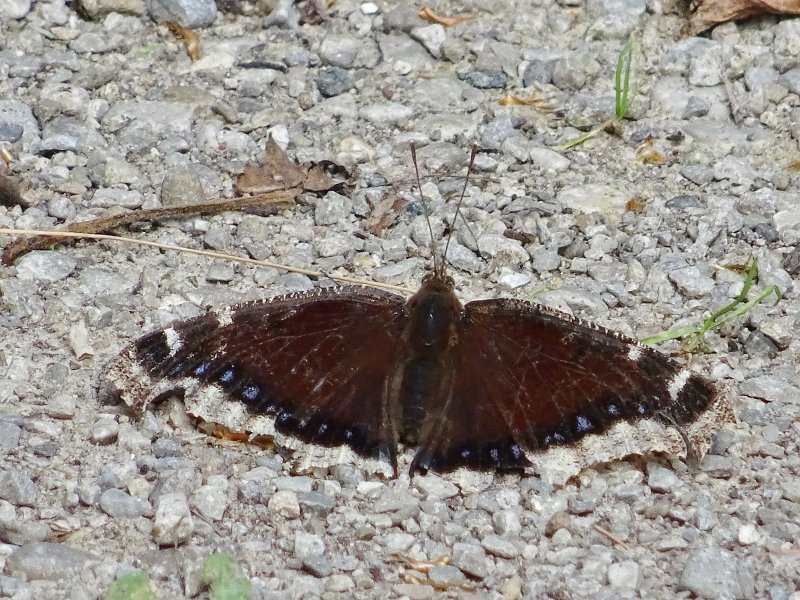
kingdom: Animalia
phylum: Arthropoda
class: Insecta
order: Lepidoptera
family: Nymphalidae
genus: Nymphalis
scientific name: Nymphalis antiopa
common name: Mourning Cloak
